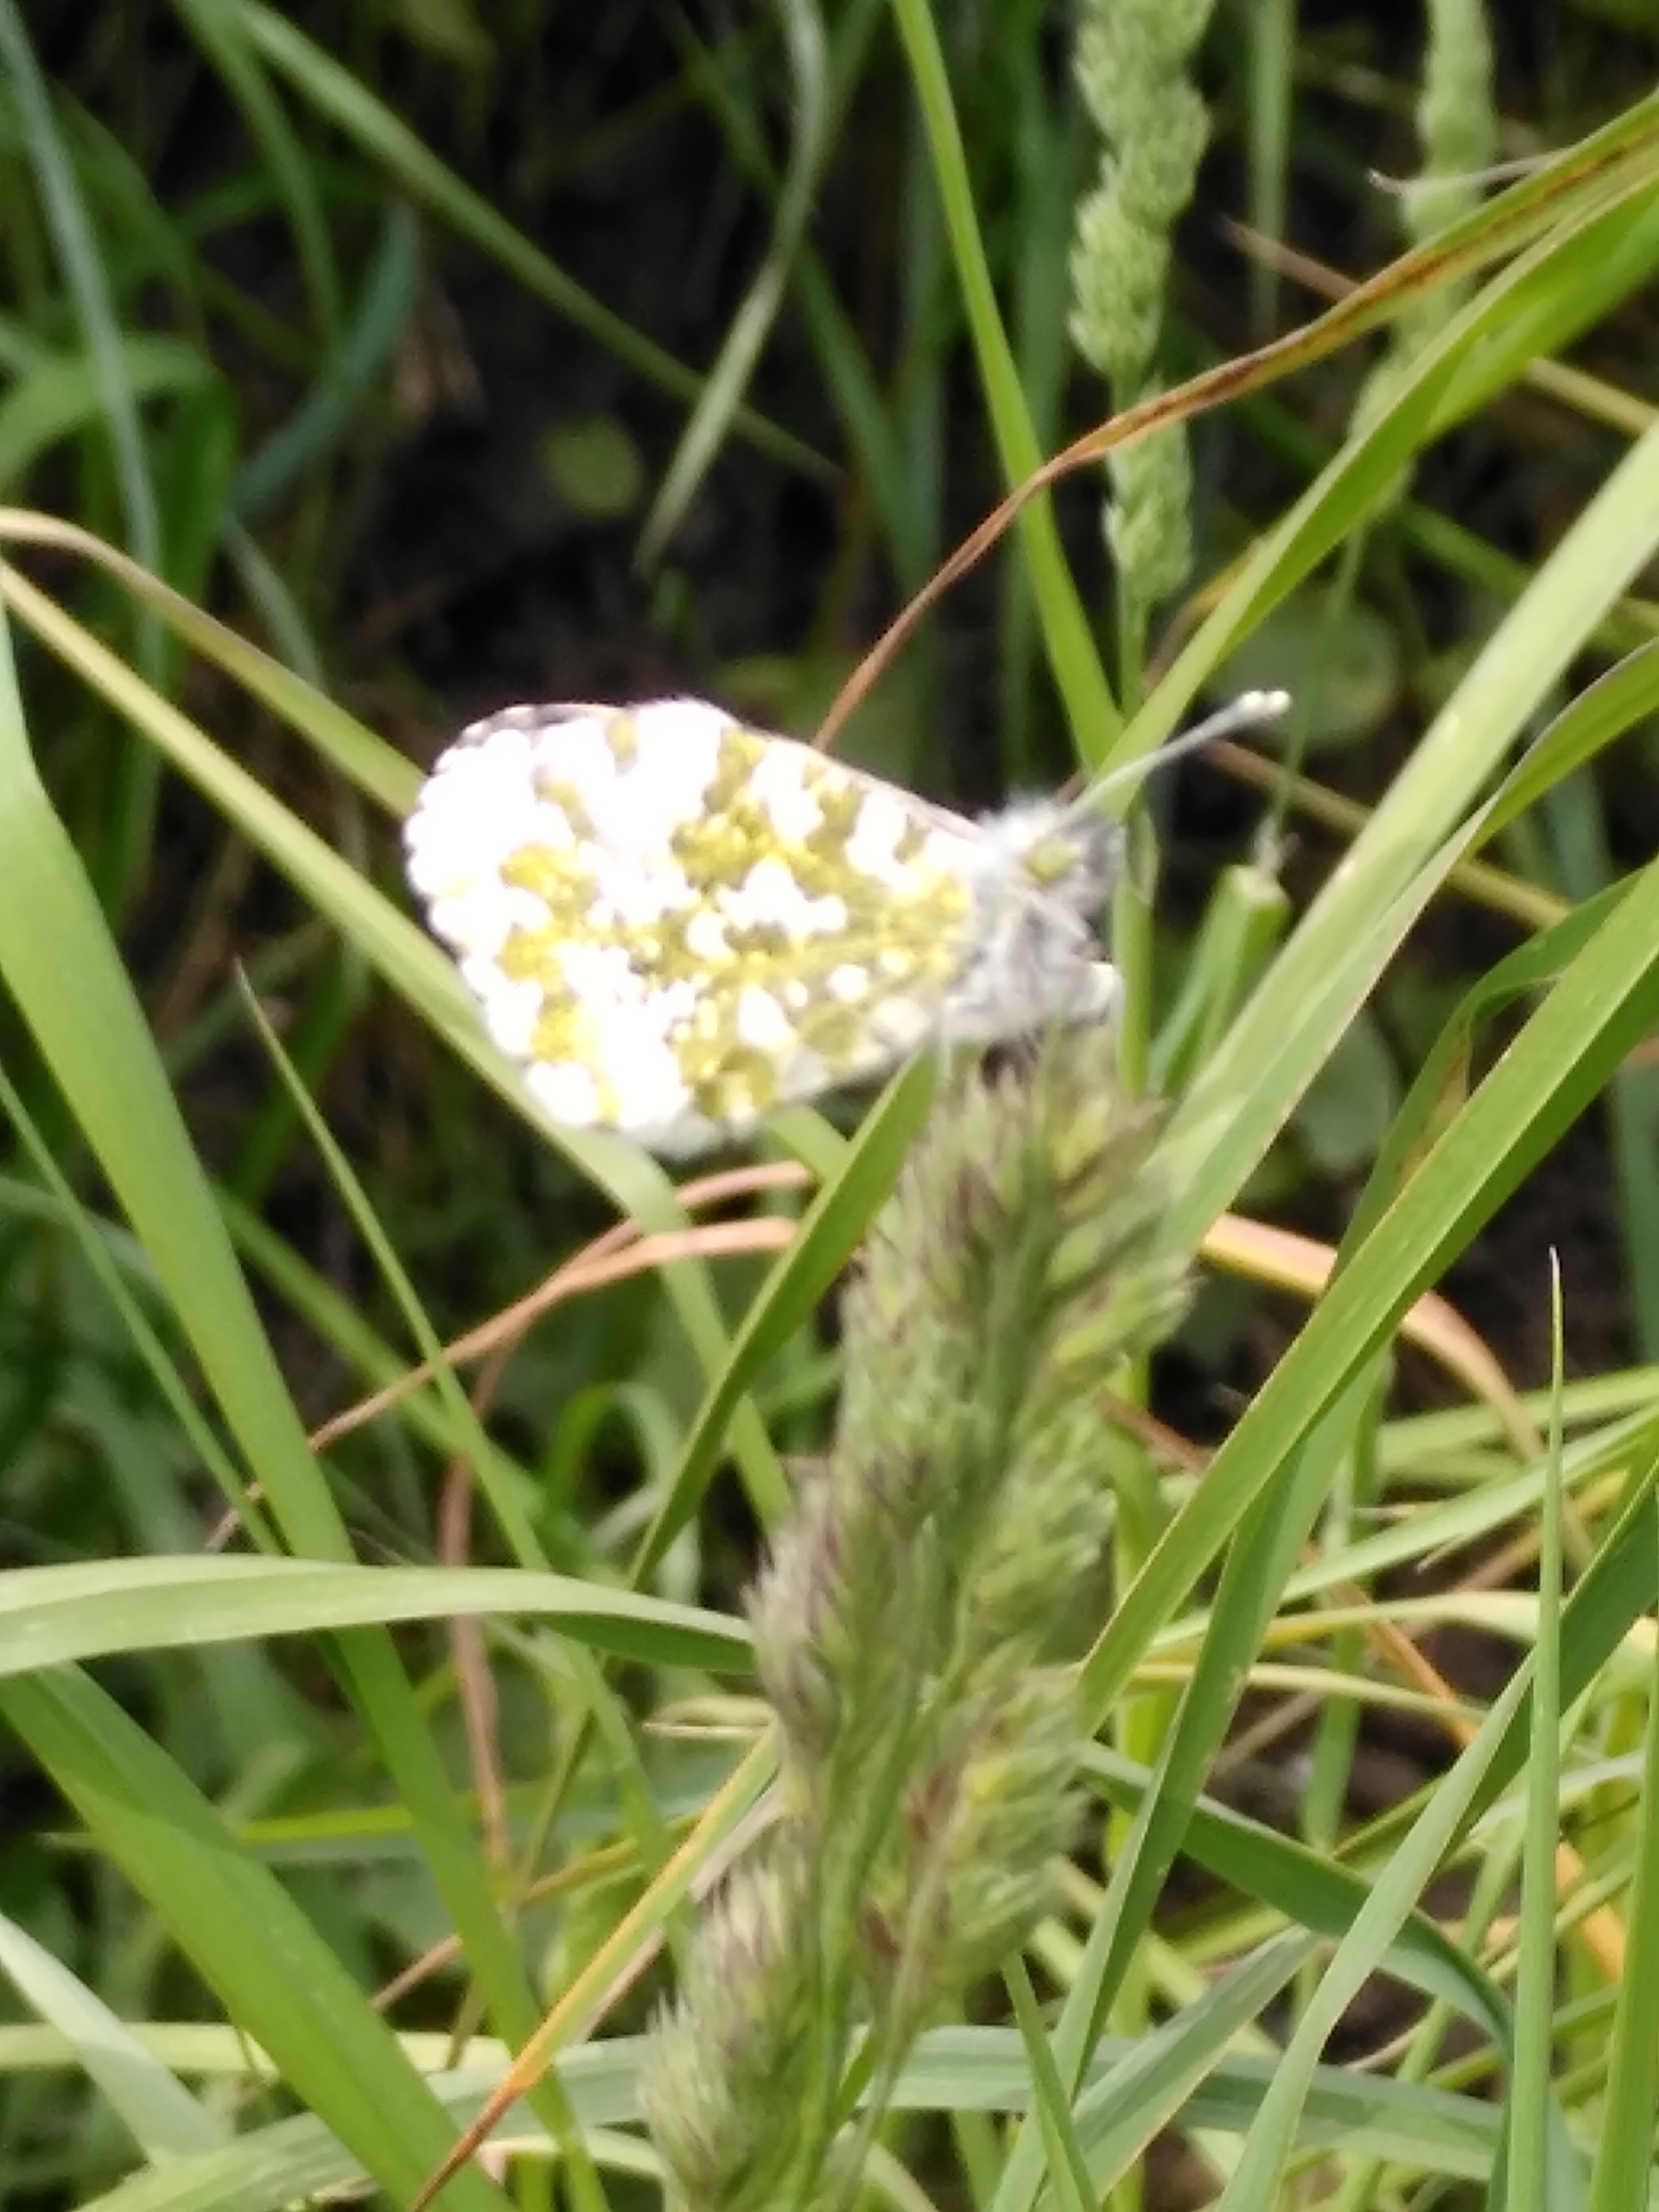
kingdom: Animalia
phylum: Arthropoda
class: Insecta
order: Lepidoptera
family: Pieridae
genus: Anthocharis
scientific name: Anthocharis cardamines
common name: Aurora
